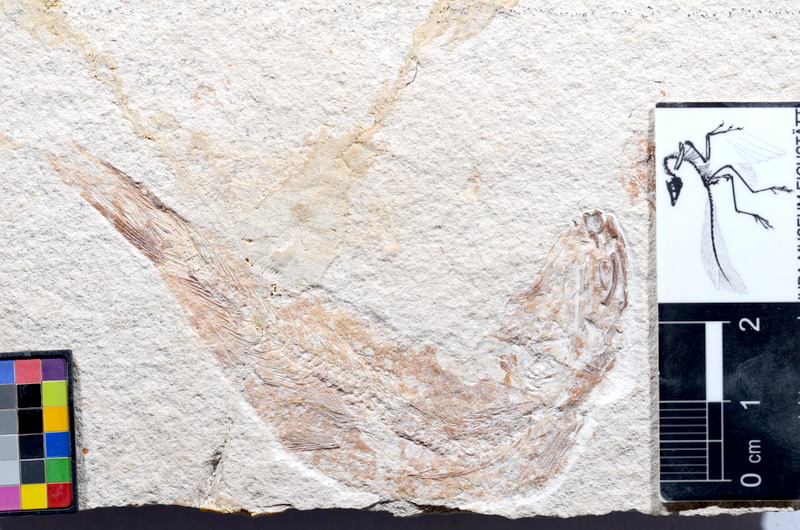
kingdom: Animalia
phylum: Chordata
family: Ascalaboidae
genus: Tharsis
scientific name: Tharsis dubius
